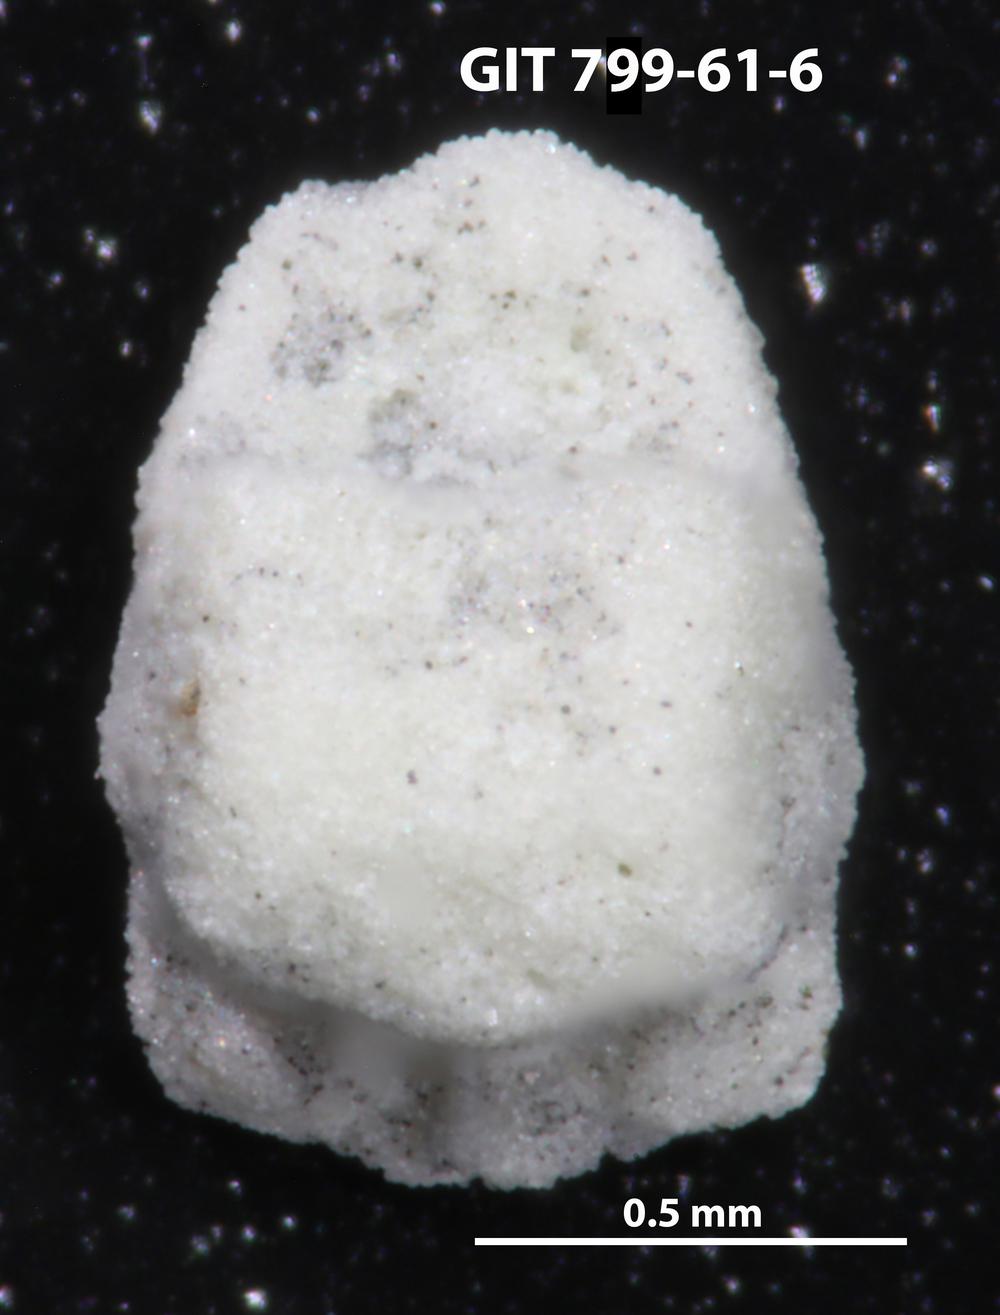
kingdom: Animalia
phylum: Echinodermata
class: Crinoidea
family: Cyclocystoididae
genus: Polytryphocycloides
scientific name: Polytryphocycloides
